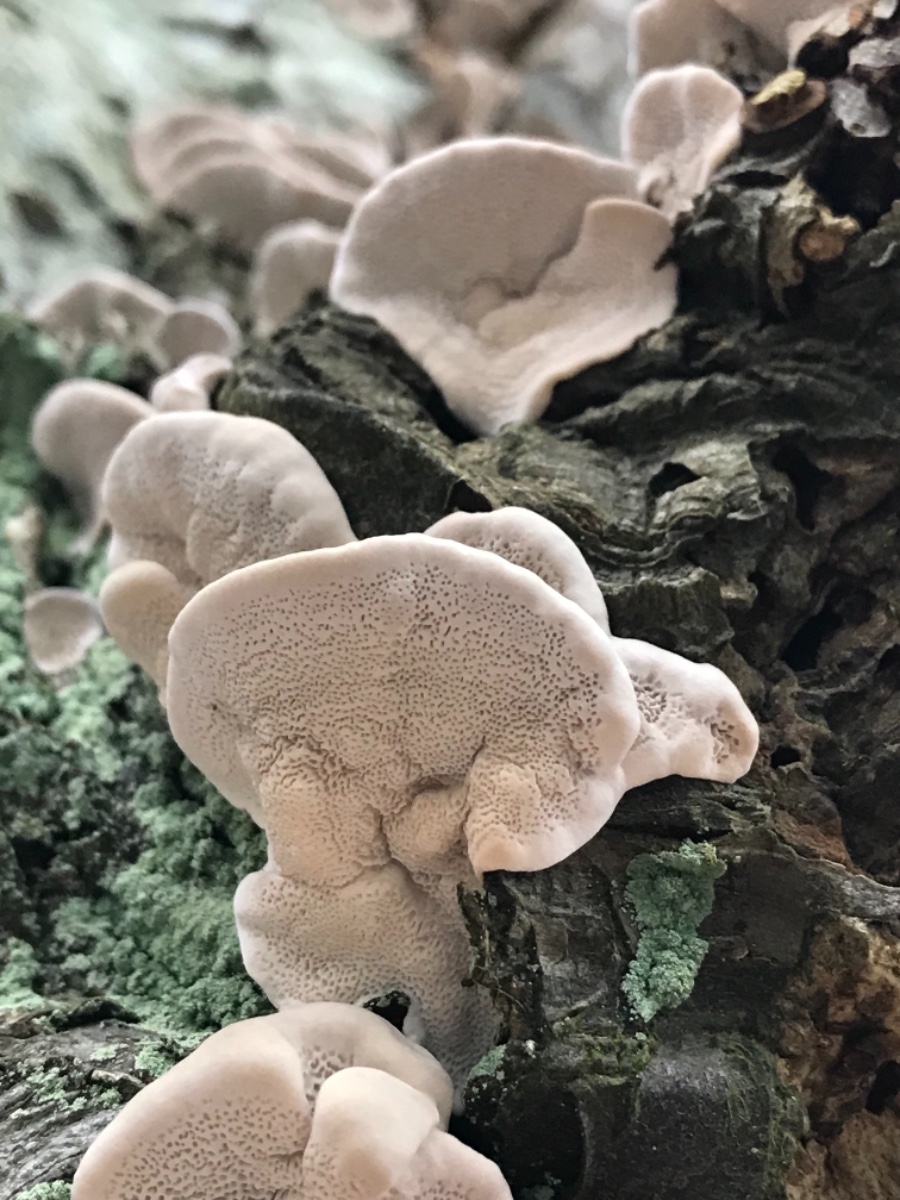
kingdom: Fungi
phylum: Basidiomycota
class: Agaricomycetes
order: Polyporales
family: Polyporaceae
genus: Trametes
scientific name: Trametes versicolor
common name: broget læderporesvamp
